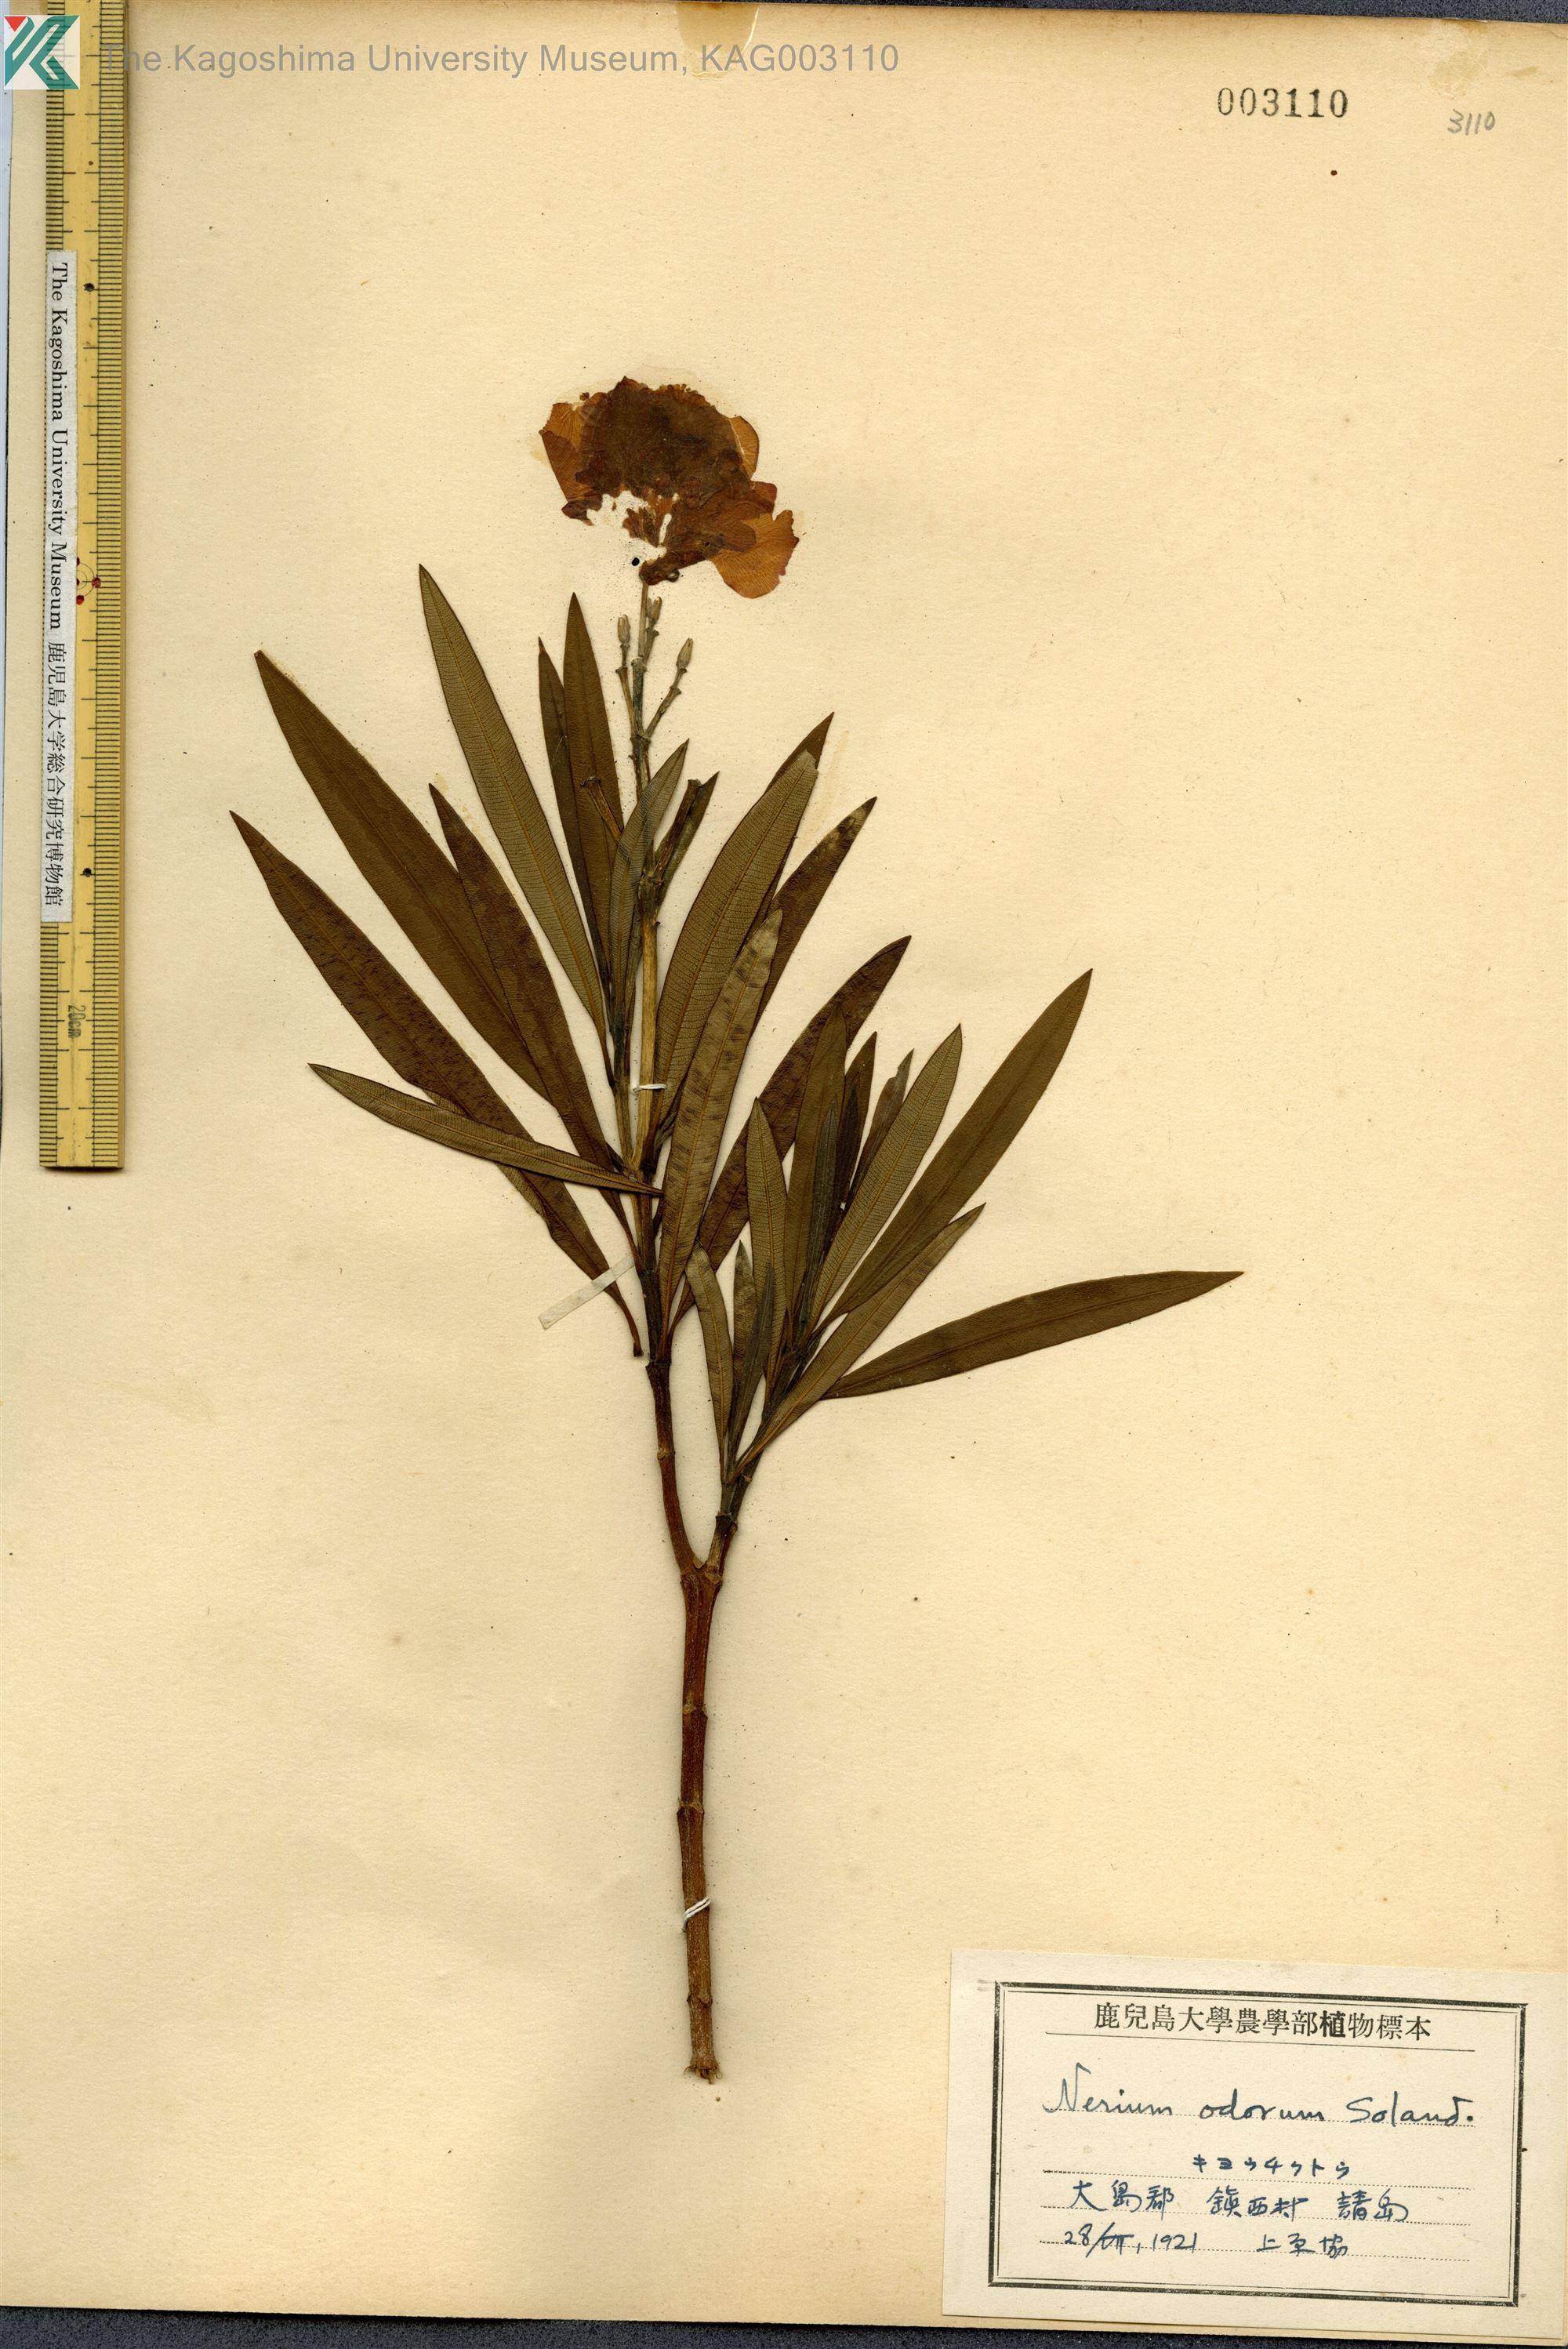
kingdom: Plantae
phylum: Tracheophyta
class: Magnoliopsida
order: Gentianales
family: Apocynaceae
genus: Nerium
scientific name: Nerium oleander
